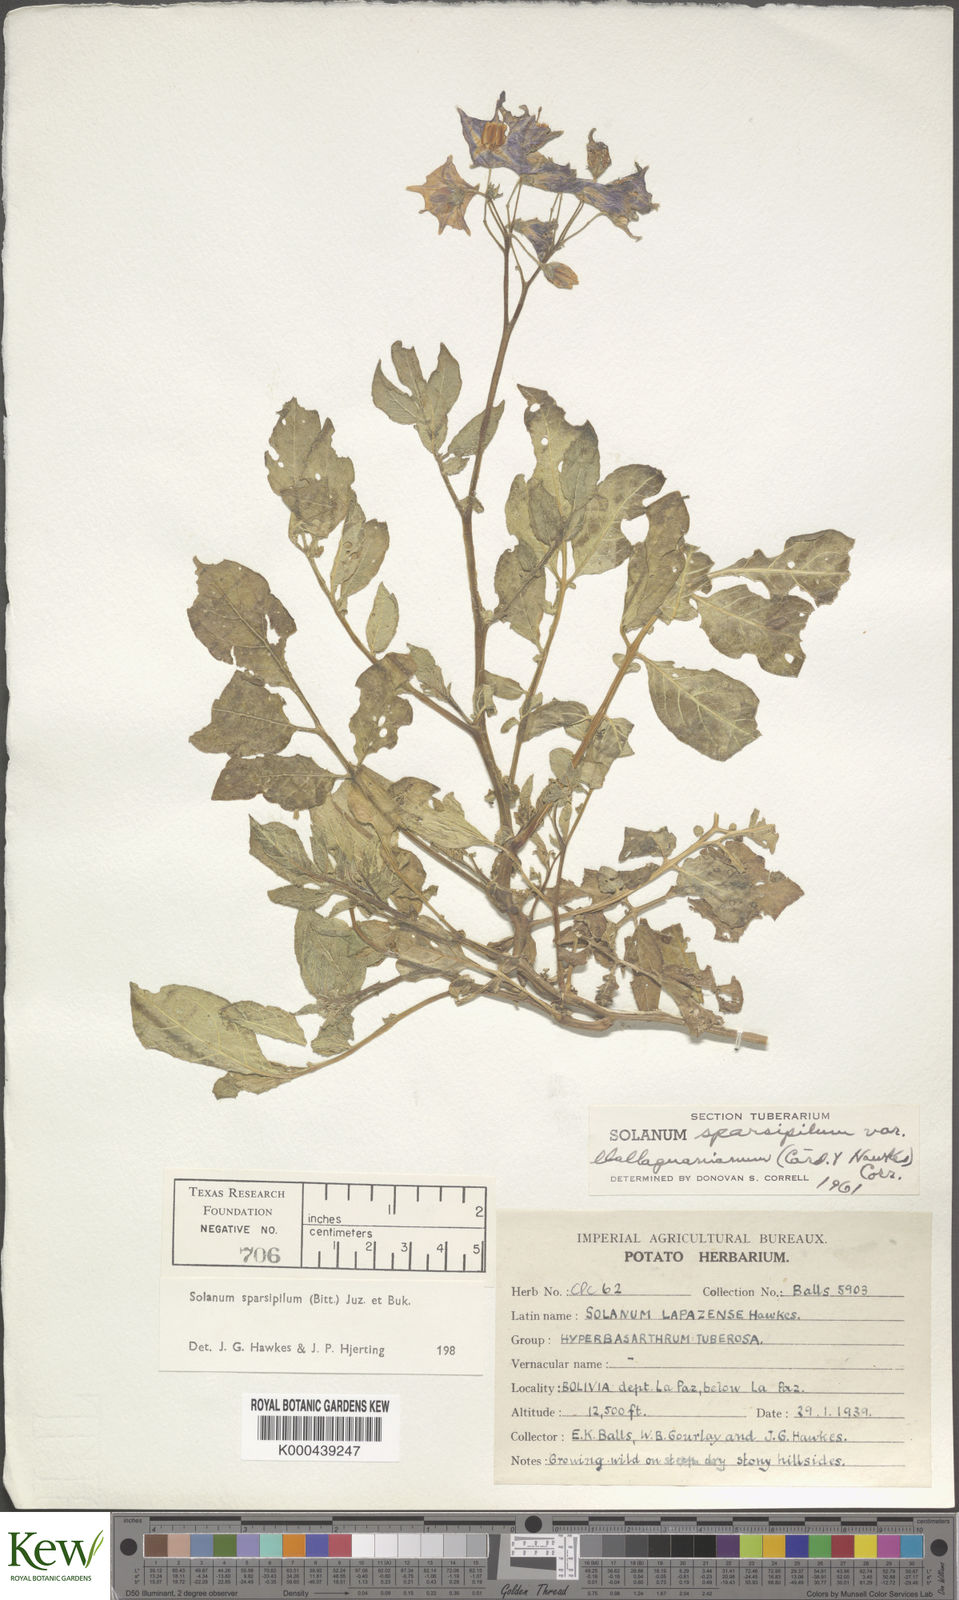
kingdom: Plantae
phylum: Tracheophyta
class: Magnoliopsida
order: Solanales
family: Solanaceae
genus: Solanum
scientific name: Solanum brevicaule
